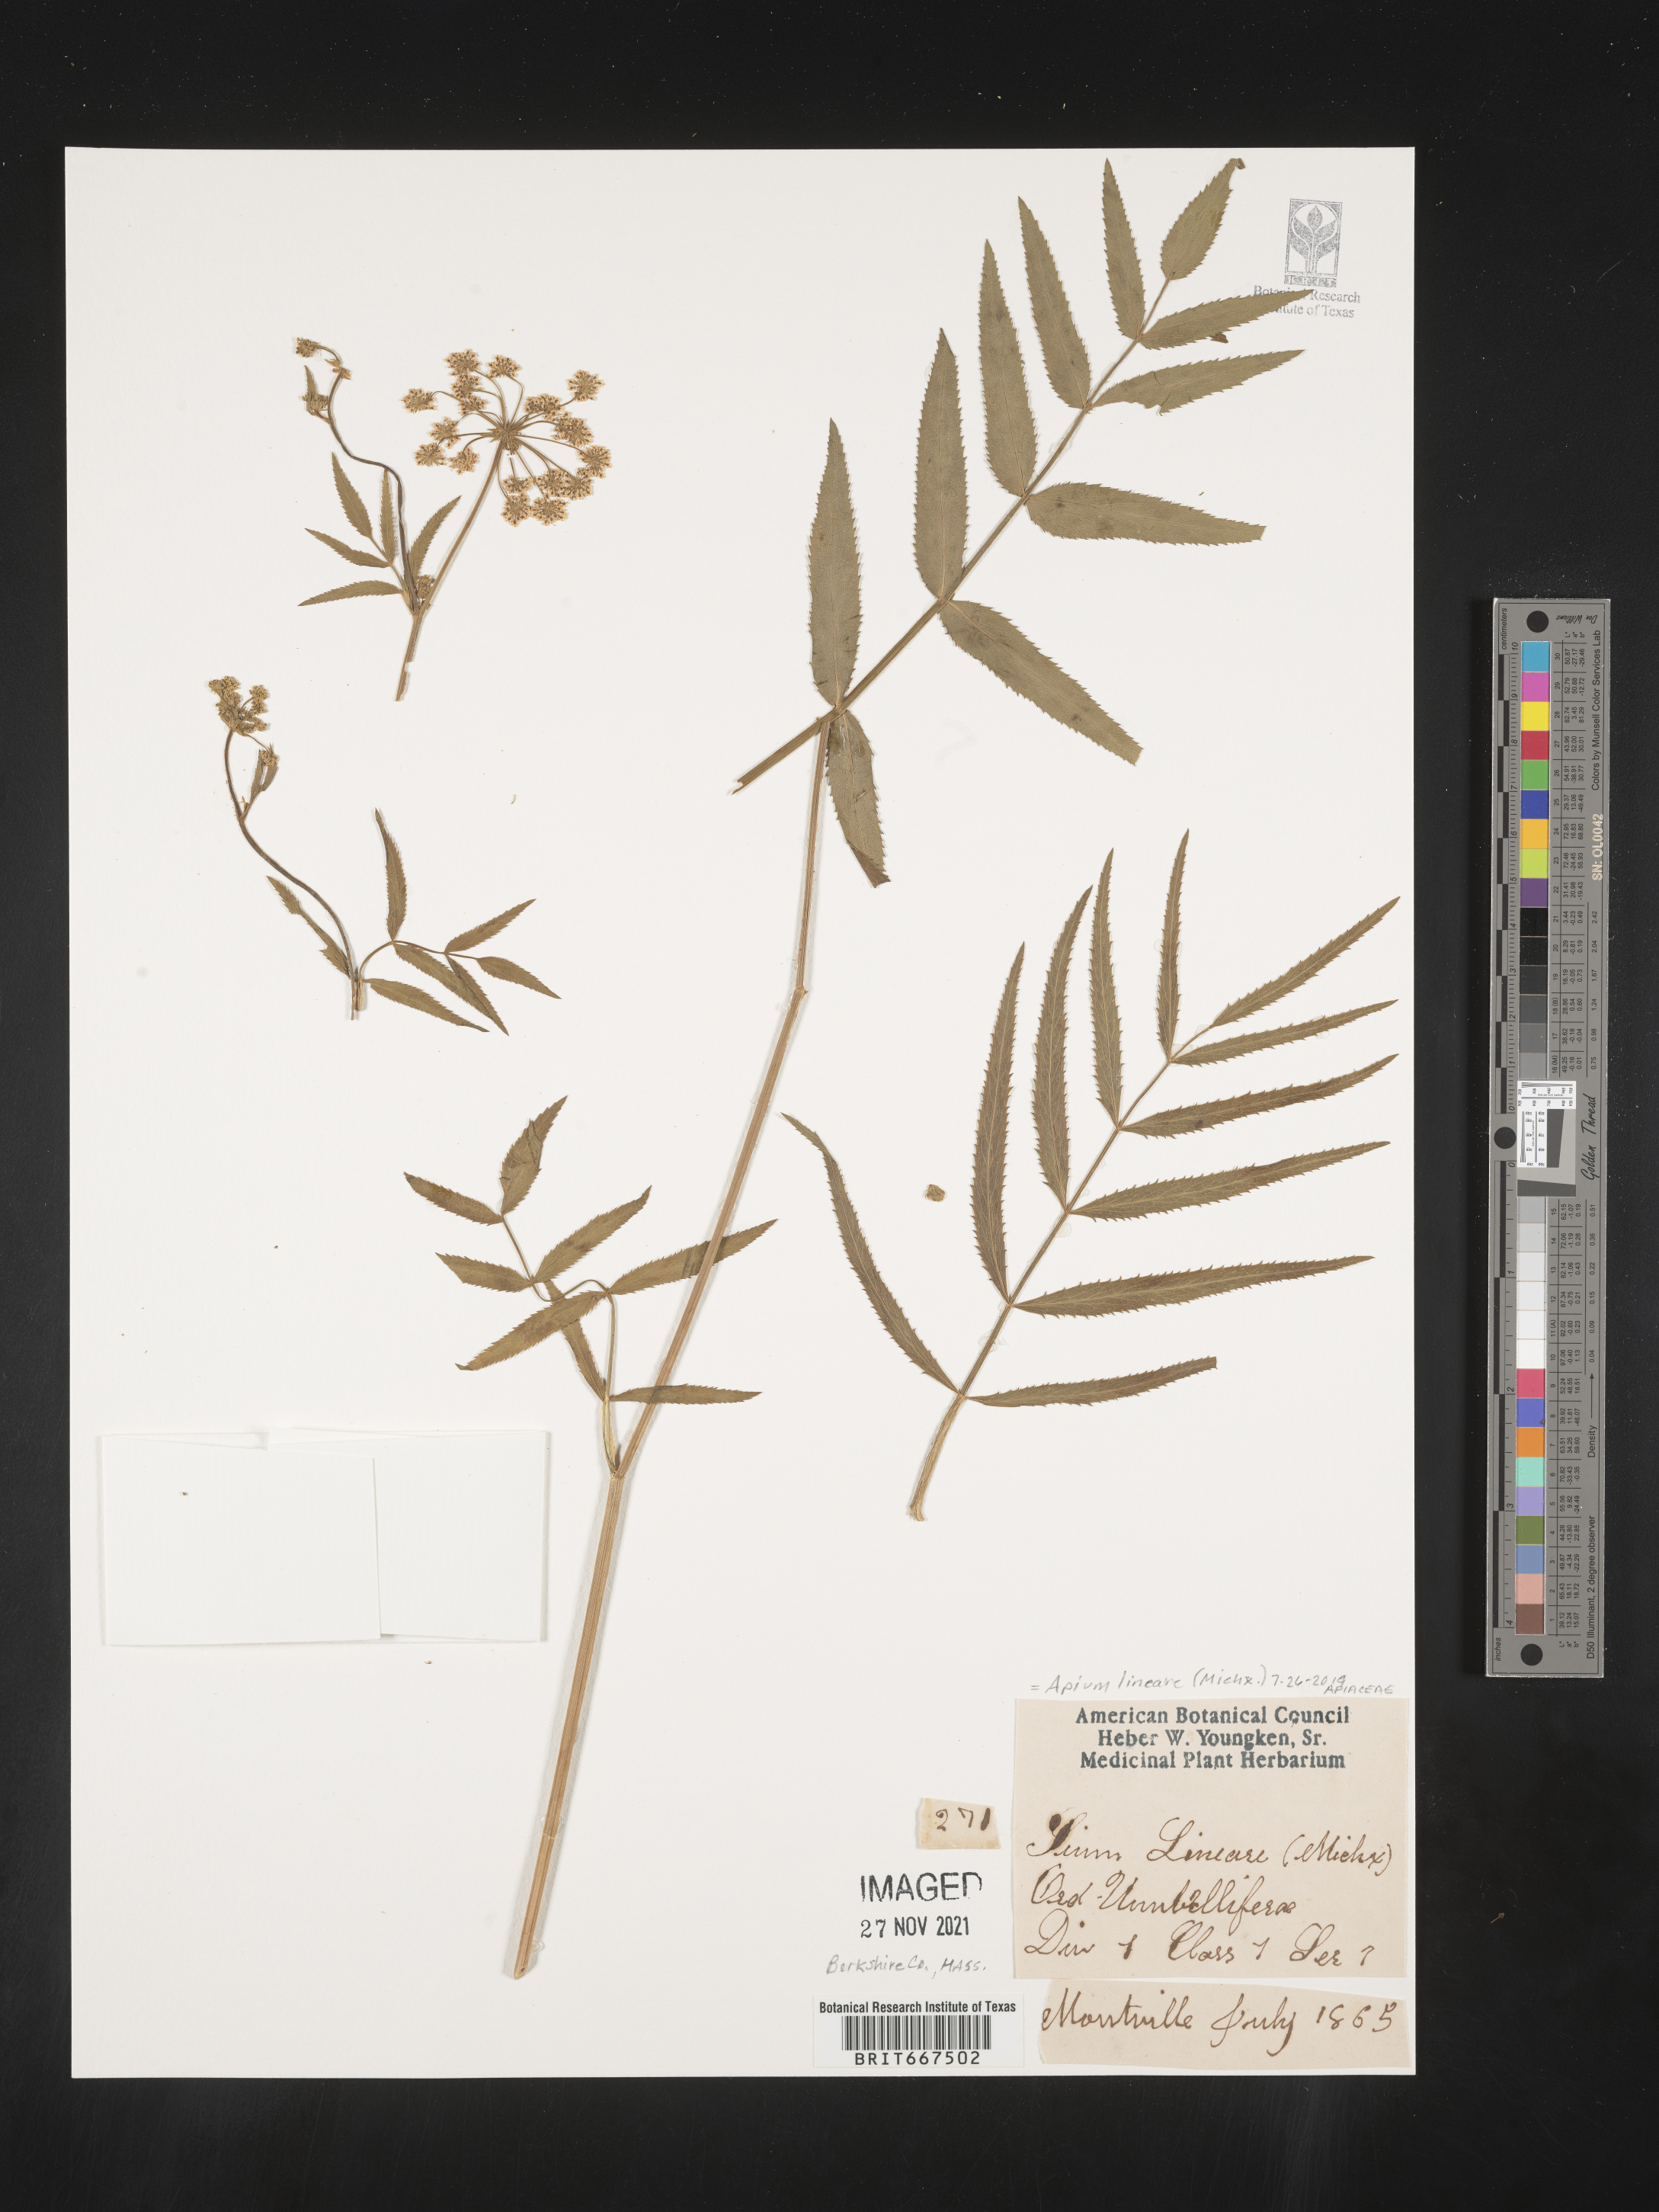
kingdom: Plantae
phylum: Tracheophyta
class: Magnoliopsida
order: Apiales
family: Apiaceae
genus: Apium
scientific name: Apium
